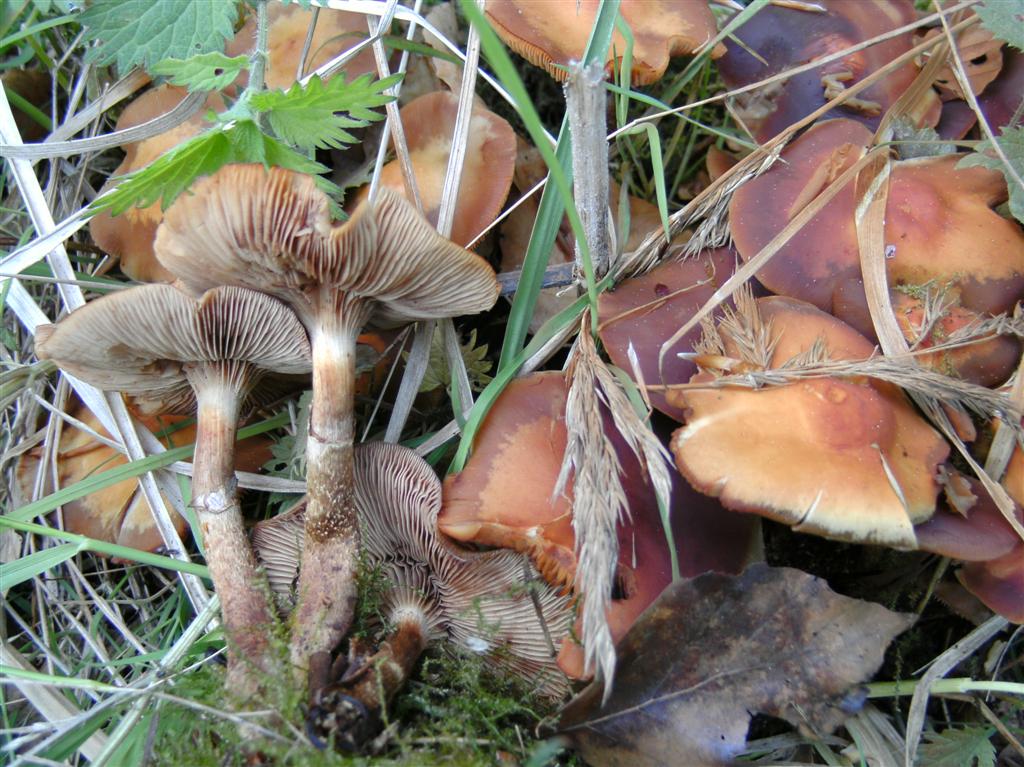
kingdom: Fungi
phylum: Basidiomycota
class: Agaricomycetes
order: Agaricales
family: Strophariaceae
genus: Kuehneromyces
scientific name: Kuehneromyces mutabilis
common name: foranderlig skælhat
